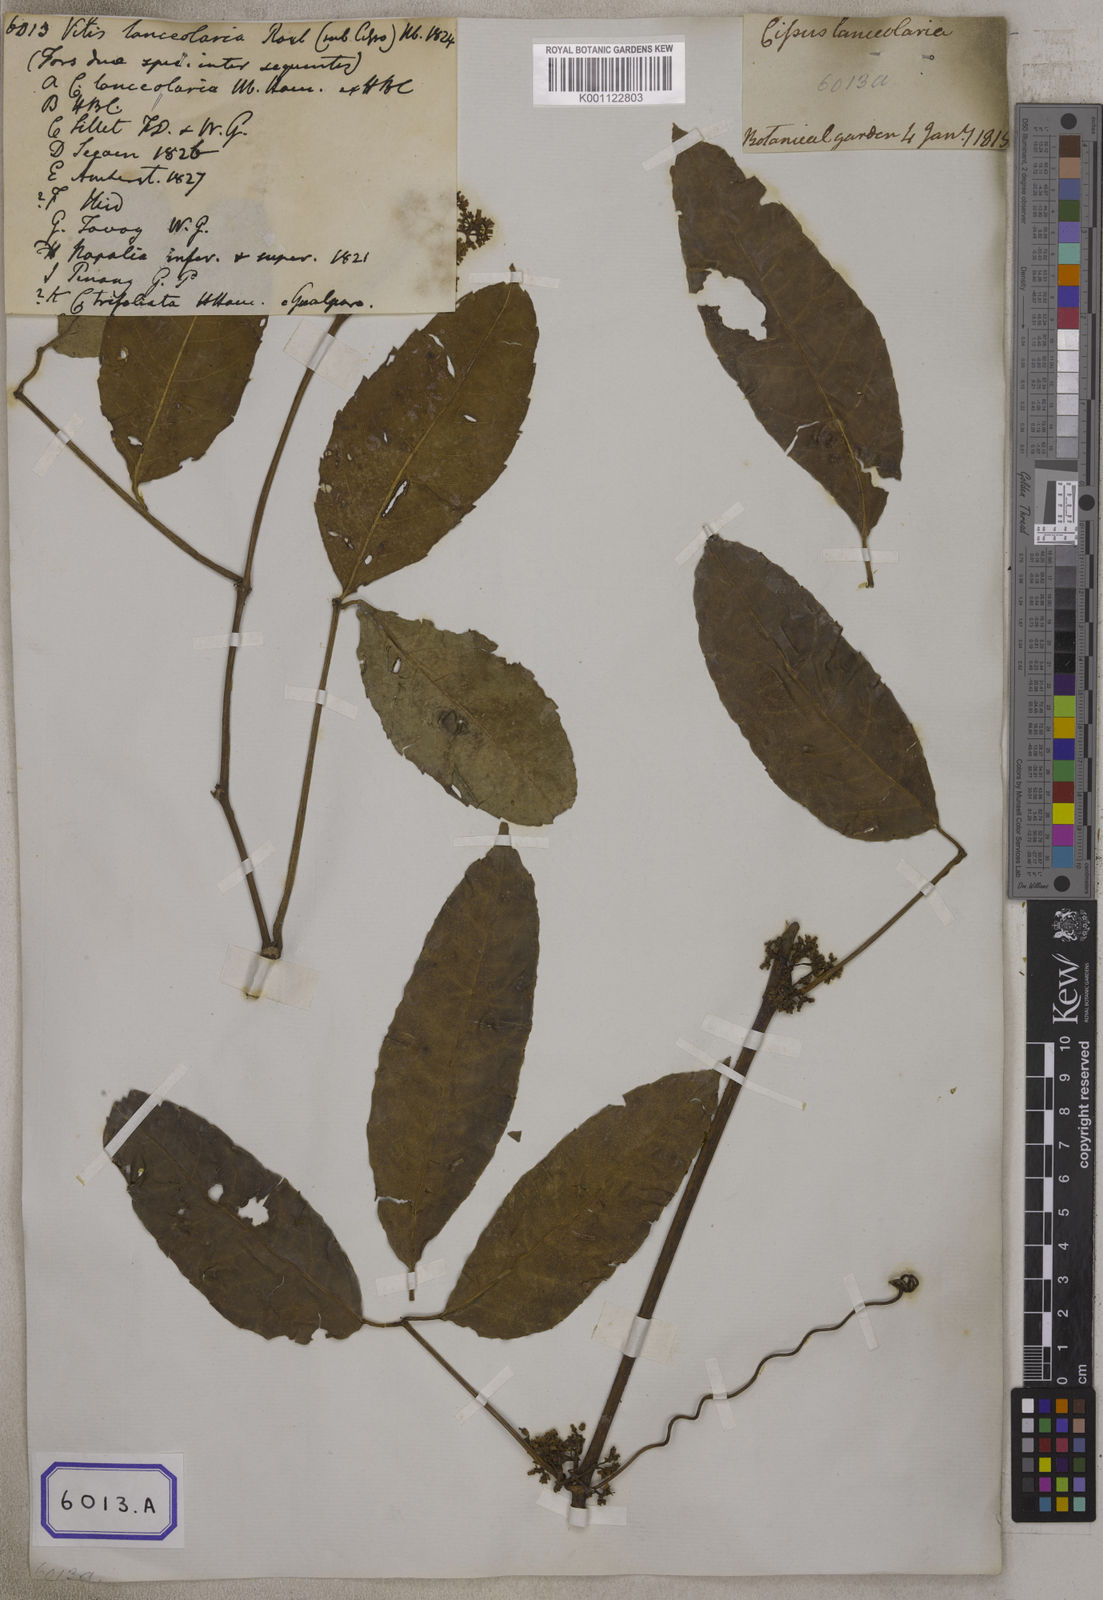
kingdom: Plantae
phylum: Tracheophyta
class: Magnoliopsida
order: Vitales
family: Vitaceae
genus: Vitis
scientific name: Vitis
